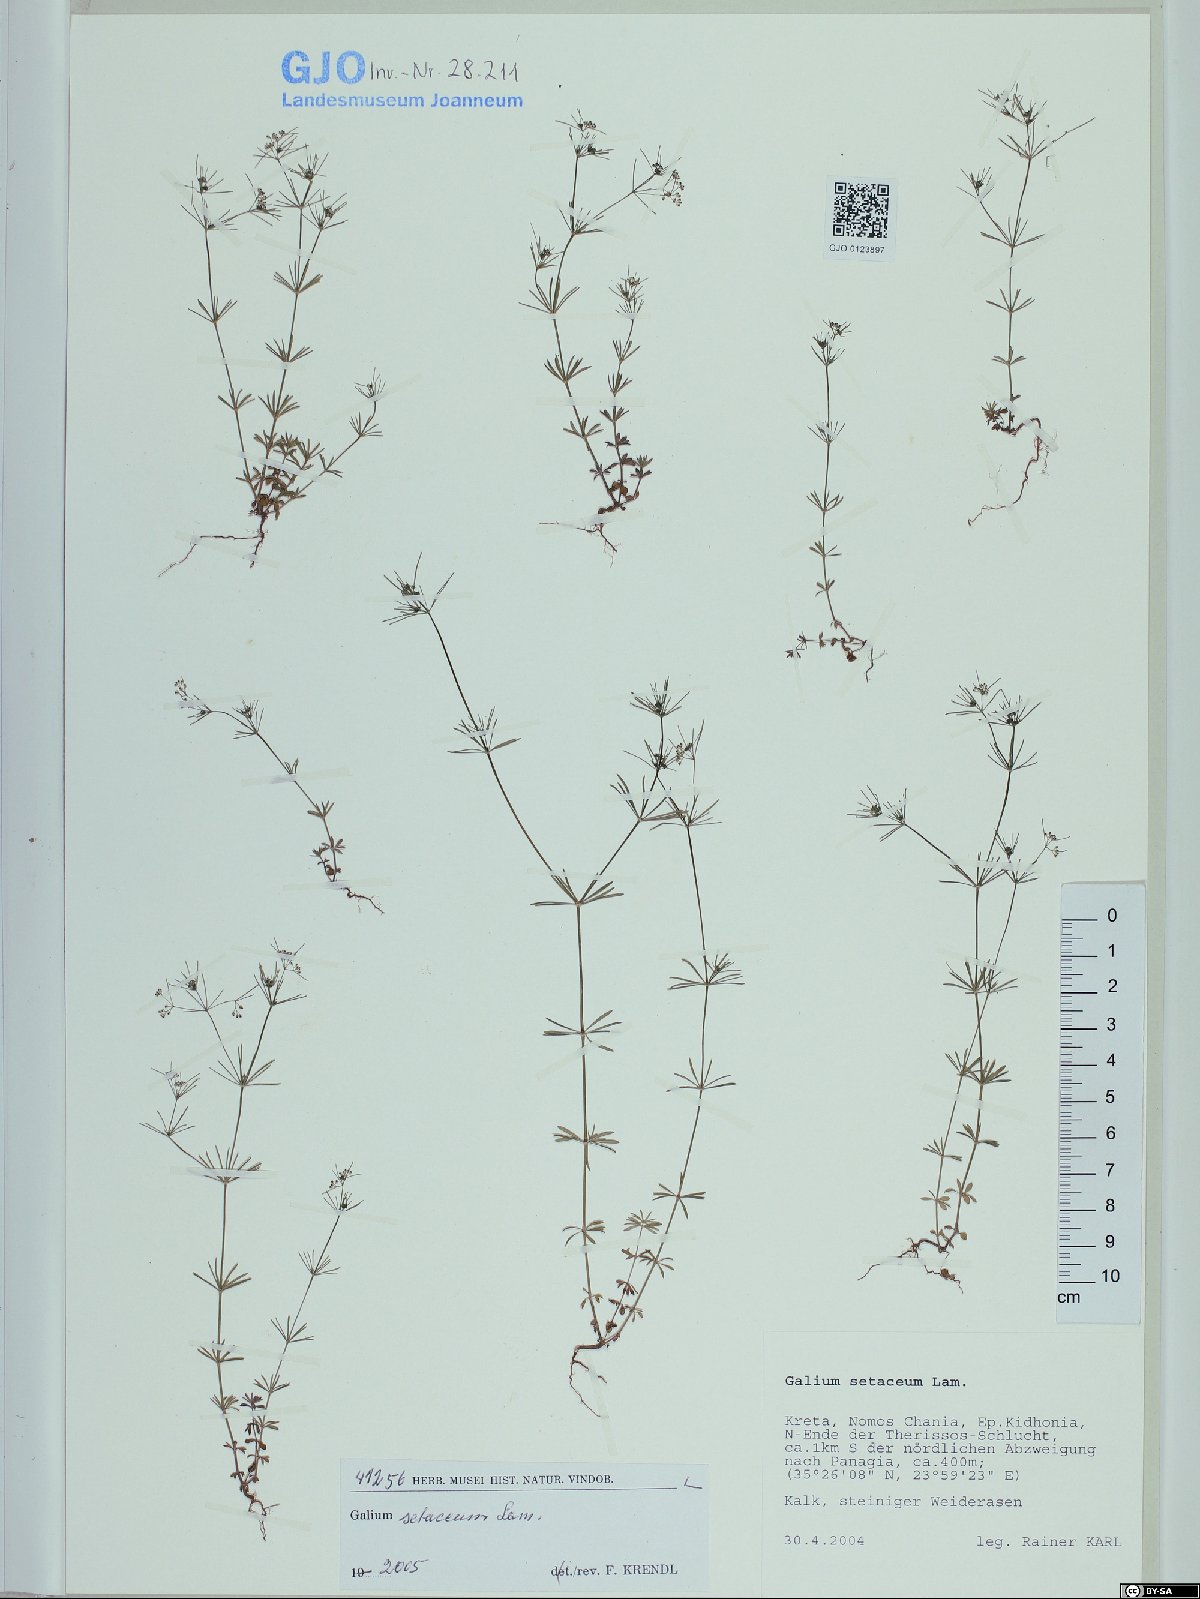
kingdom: Plantae
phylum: Tracheophyta
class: Magnoliopsida
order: Gentianales
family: Rubiaceae
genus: Galium
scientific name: Galium setaceum
